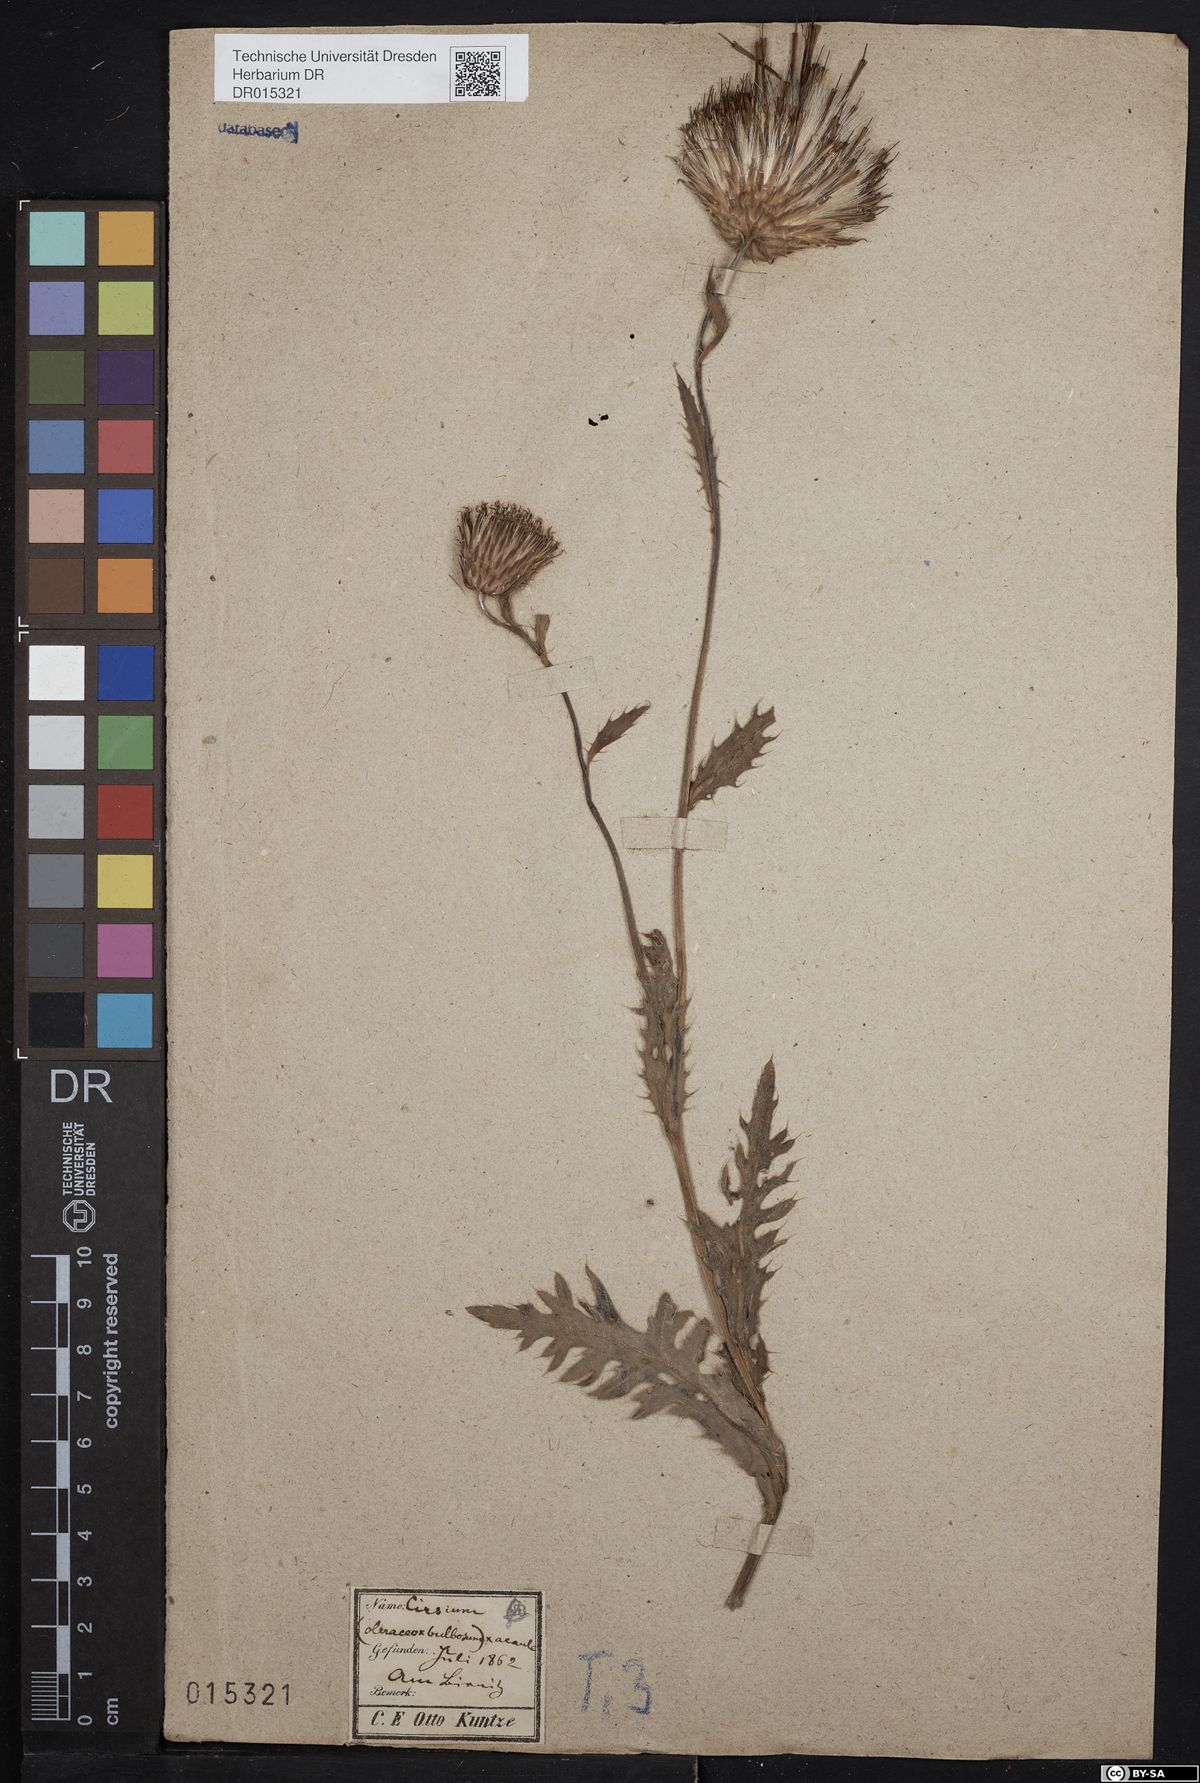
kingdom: Plantae
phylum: Tracheophyta
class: Magnoliopsida
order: Asterales
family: Asteraceae
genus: Cirsium
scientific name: Cirsium medium
